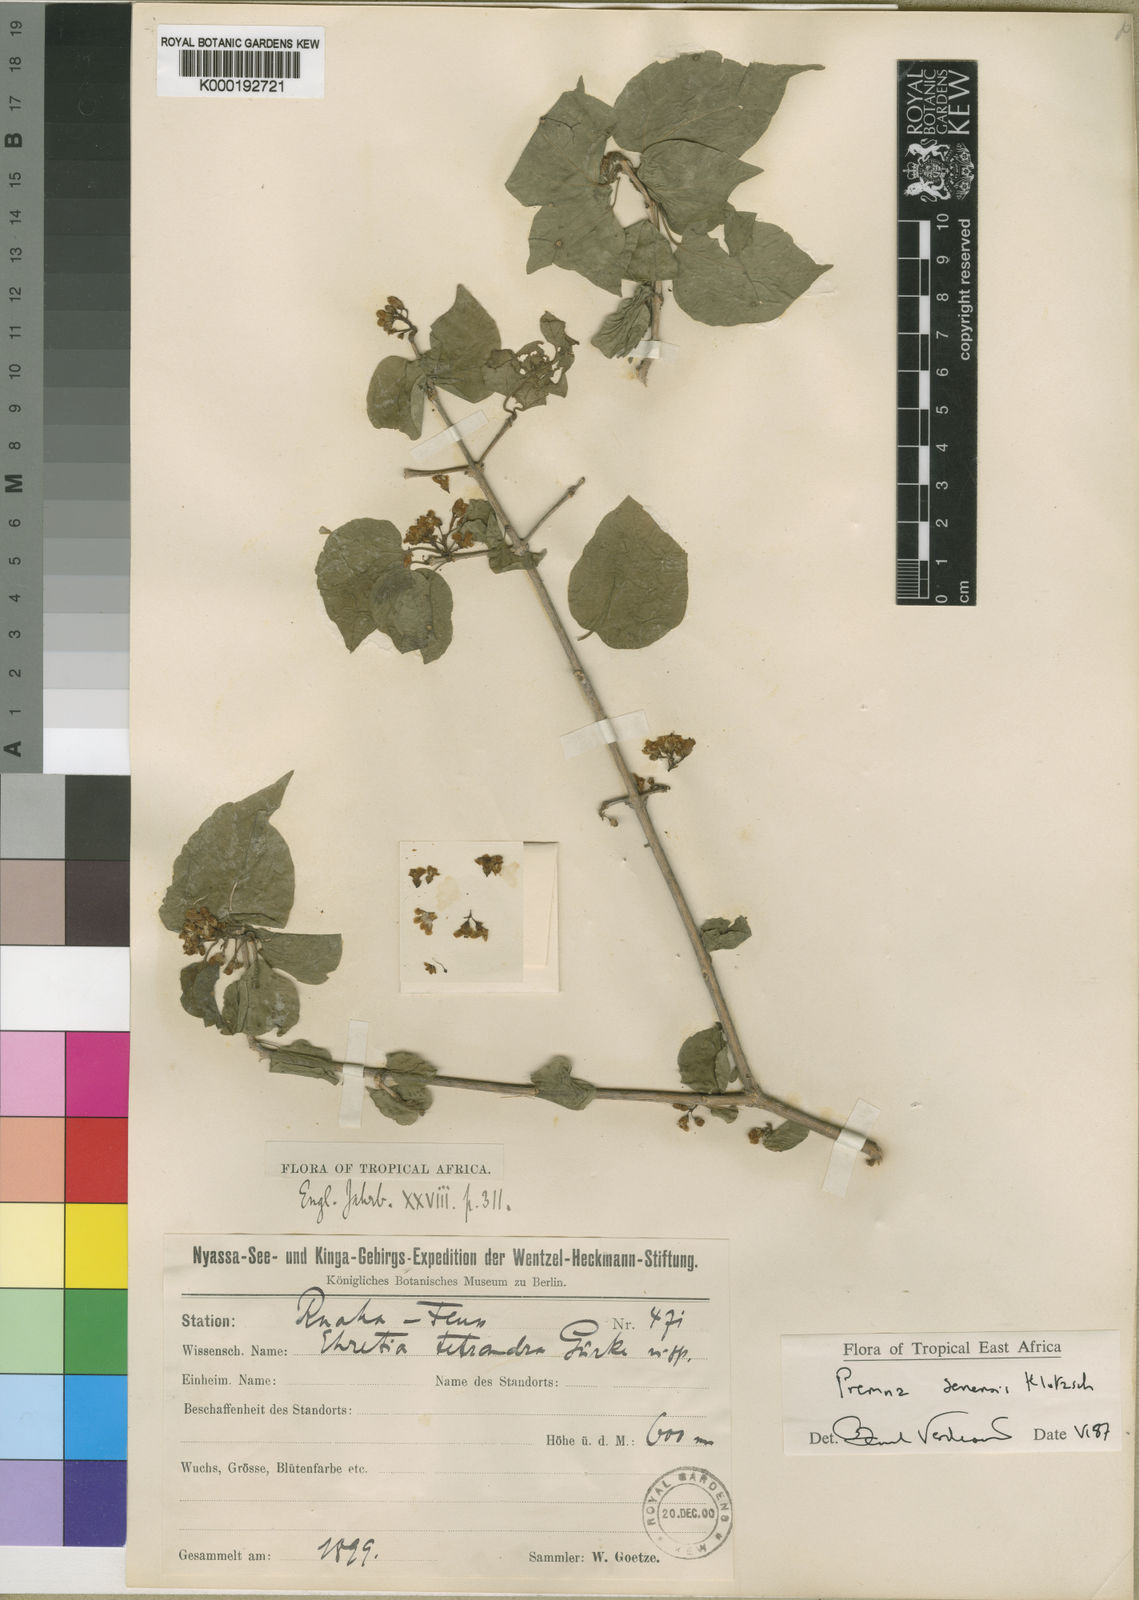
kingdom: Plantae
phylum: Tracheophyta
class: Magnoliopsida
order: Lamiales
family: Lamiaceae
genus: Premna
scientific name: Premna senensis
